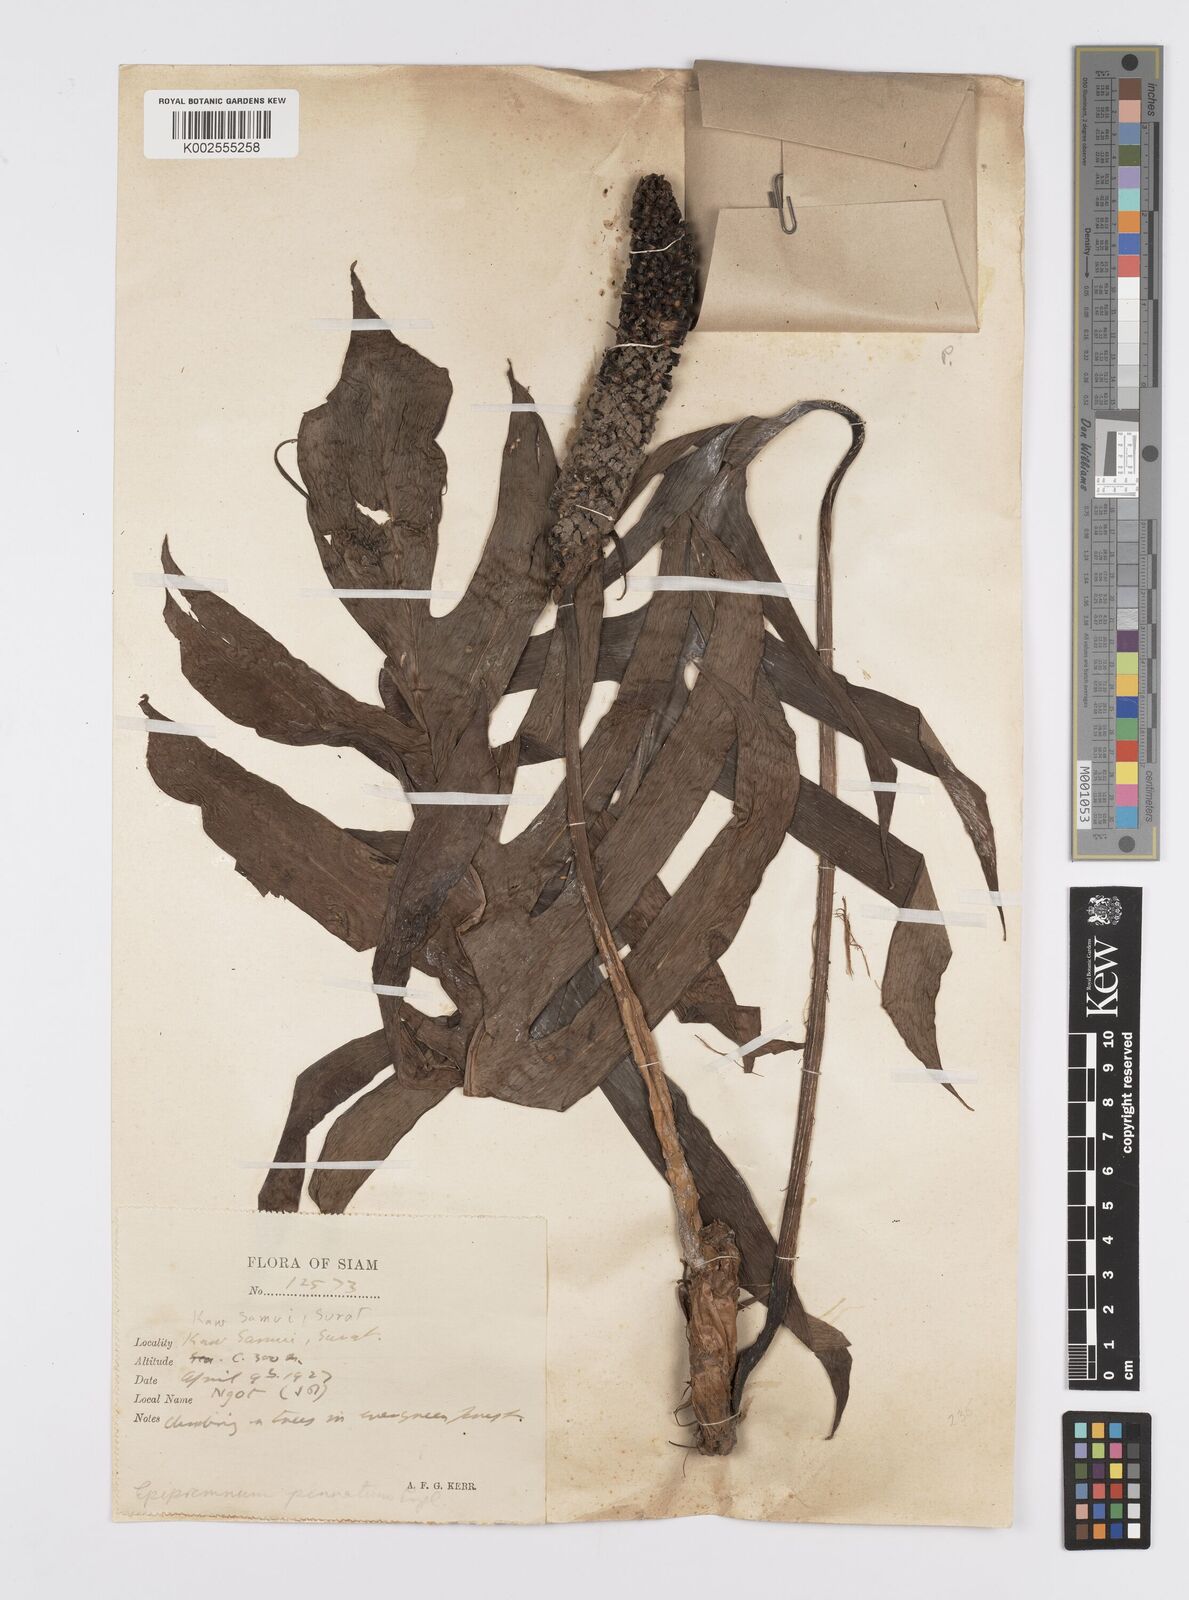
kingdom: Plantae
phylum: Tracheophyta
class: Liliopsida
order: Alismatales
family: Araceae
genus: Epipremnum
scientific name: Epipremnum pinnatum
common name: Centipede tongavine
